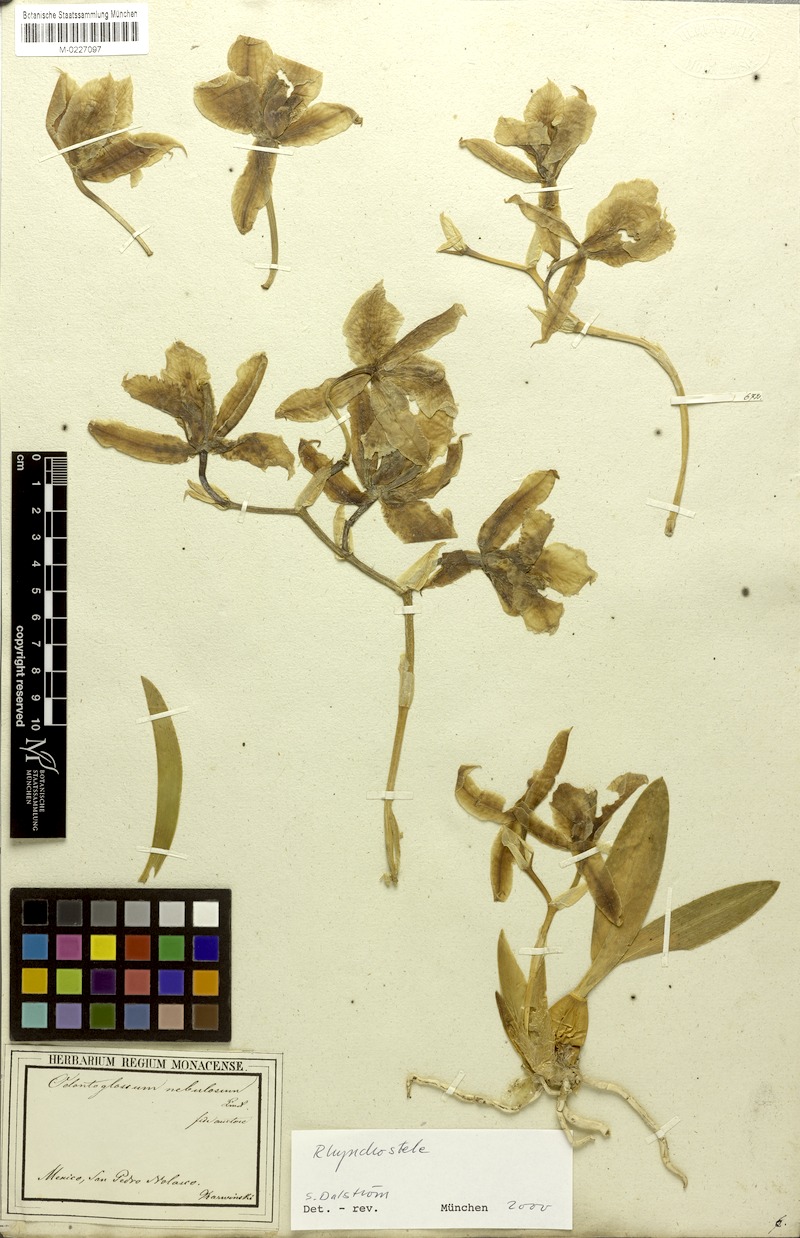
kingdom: Plantae
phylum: Tracheophyta
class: Liliopsida
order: Asparagales
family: Orchidaceae
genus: Rhynchostele
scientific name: Rhynchostele aptera
